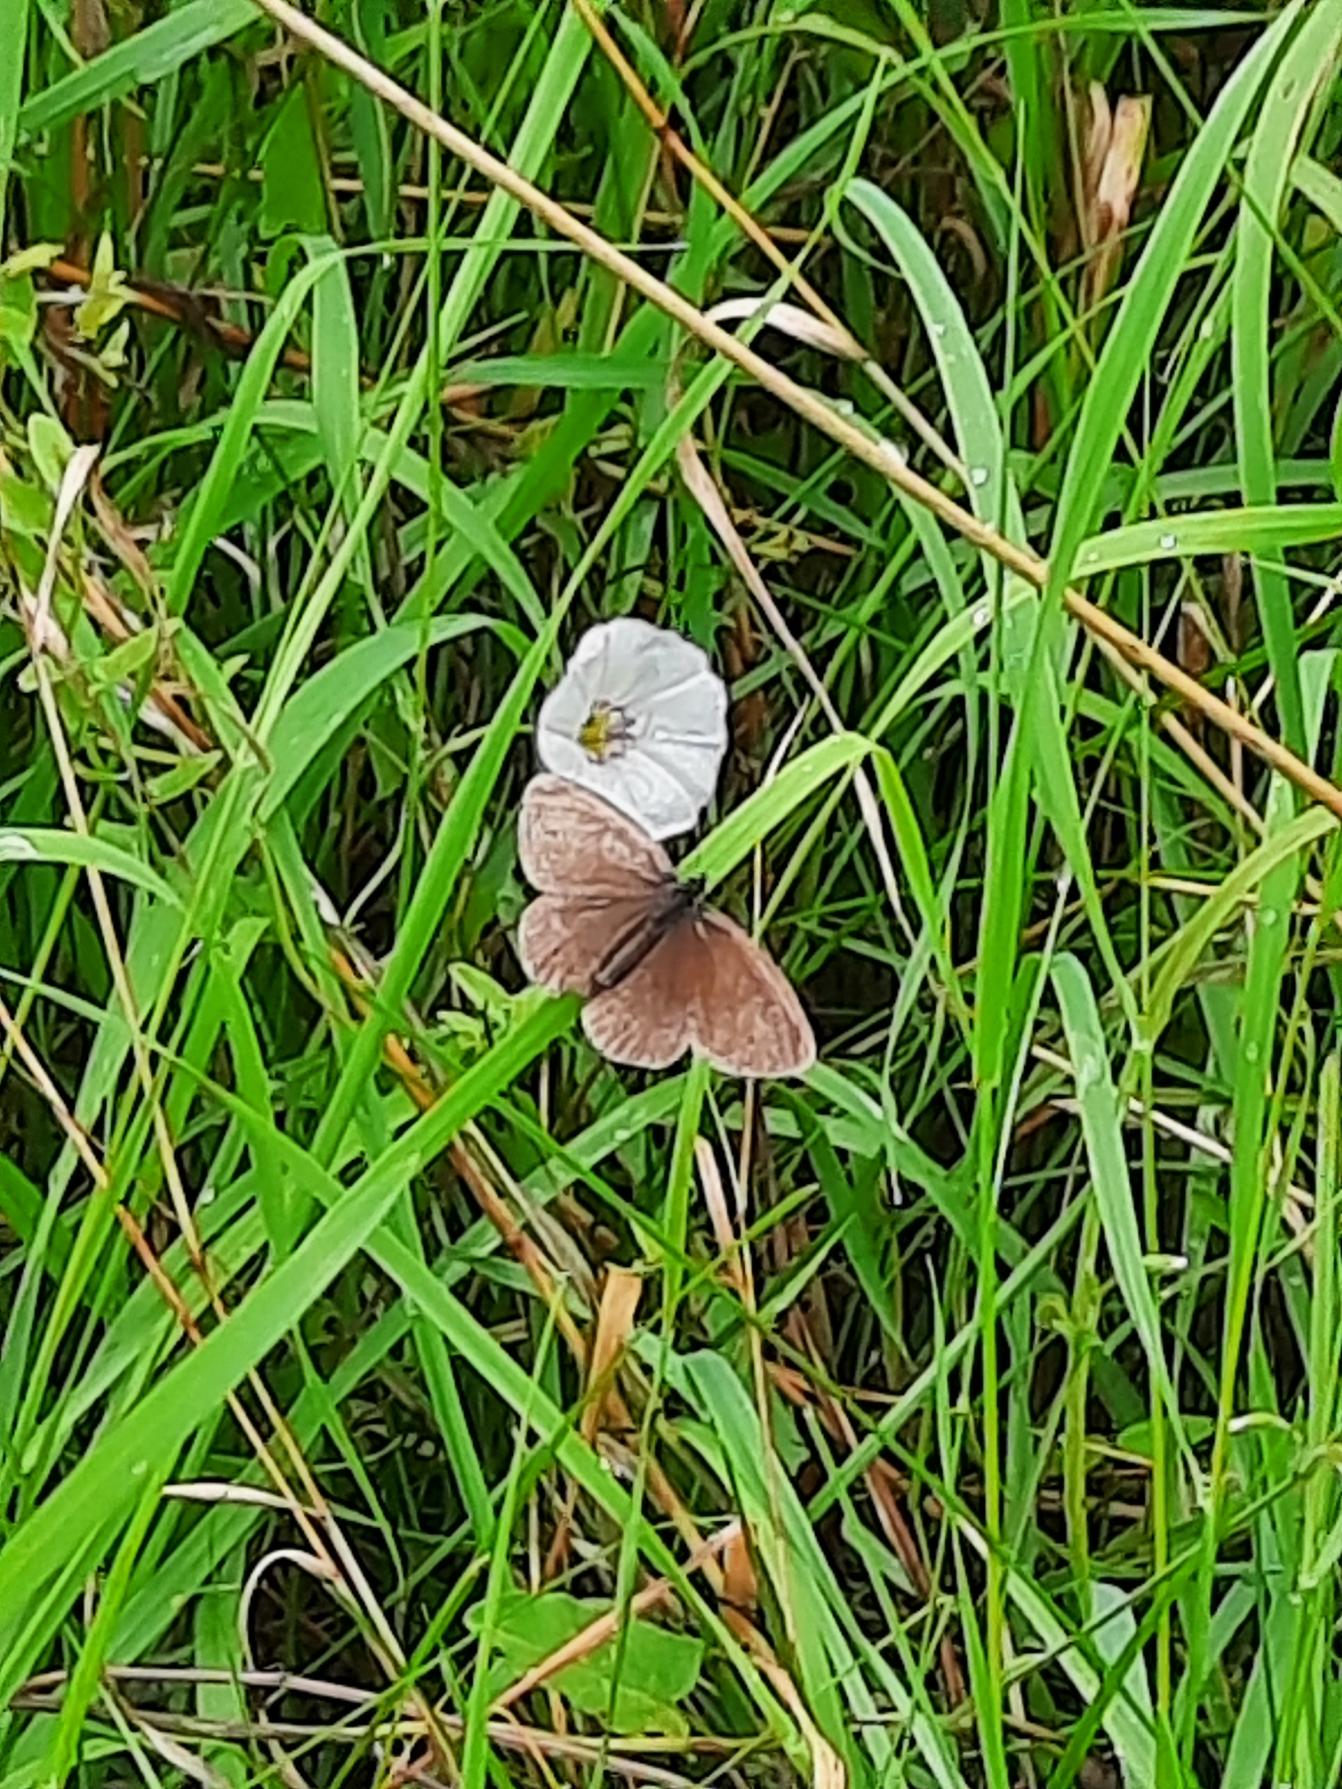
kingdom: Animalia
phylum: Arthropoda
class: Insecta
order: Lepidoptera
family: Nymphalidae
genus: Aphantopus
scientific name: Aphantopus hyperantus
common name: Engrandøje
